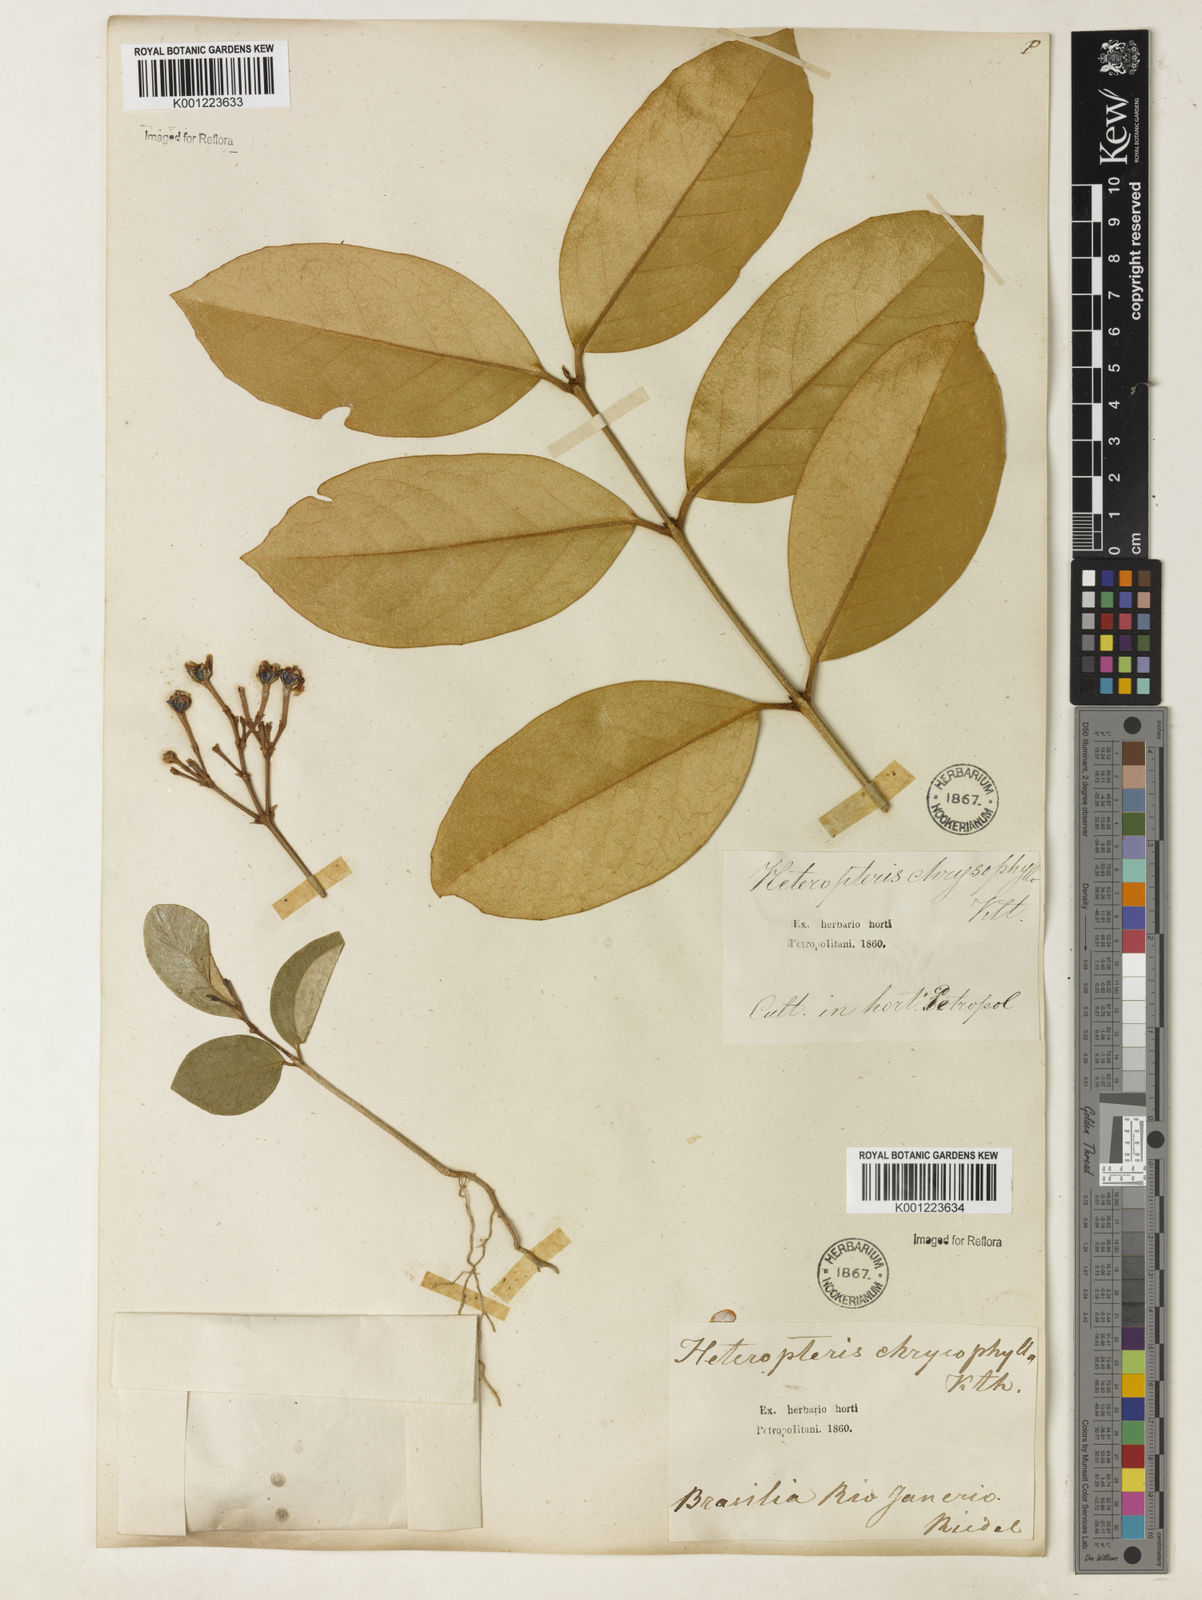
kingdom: Plantae
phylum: Tracheophyta
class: Magnoliopsida
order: Malpighiales
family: Malpighiaceae
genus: Heteropterys
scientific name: Heteropterys chrysophylla
